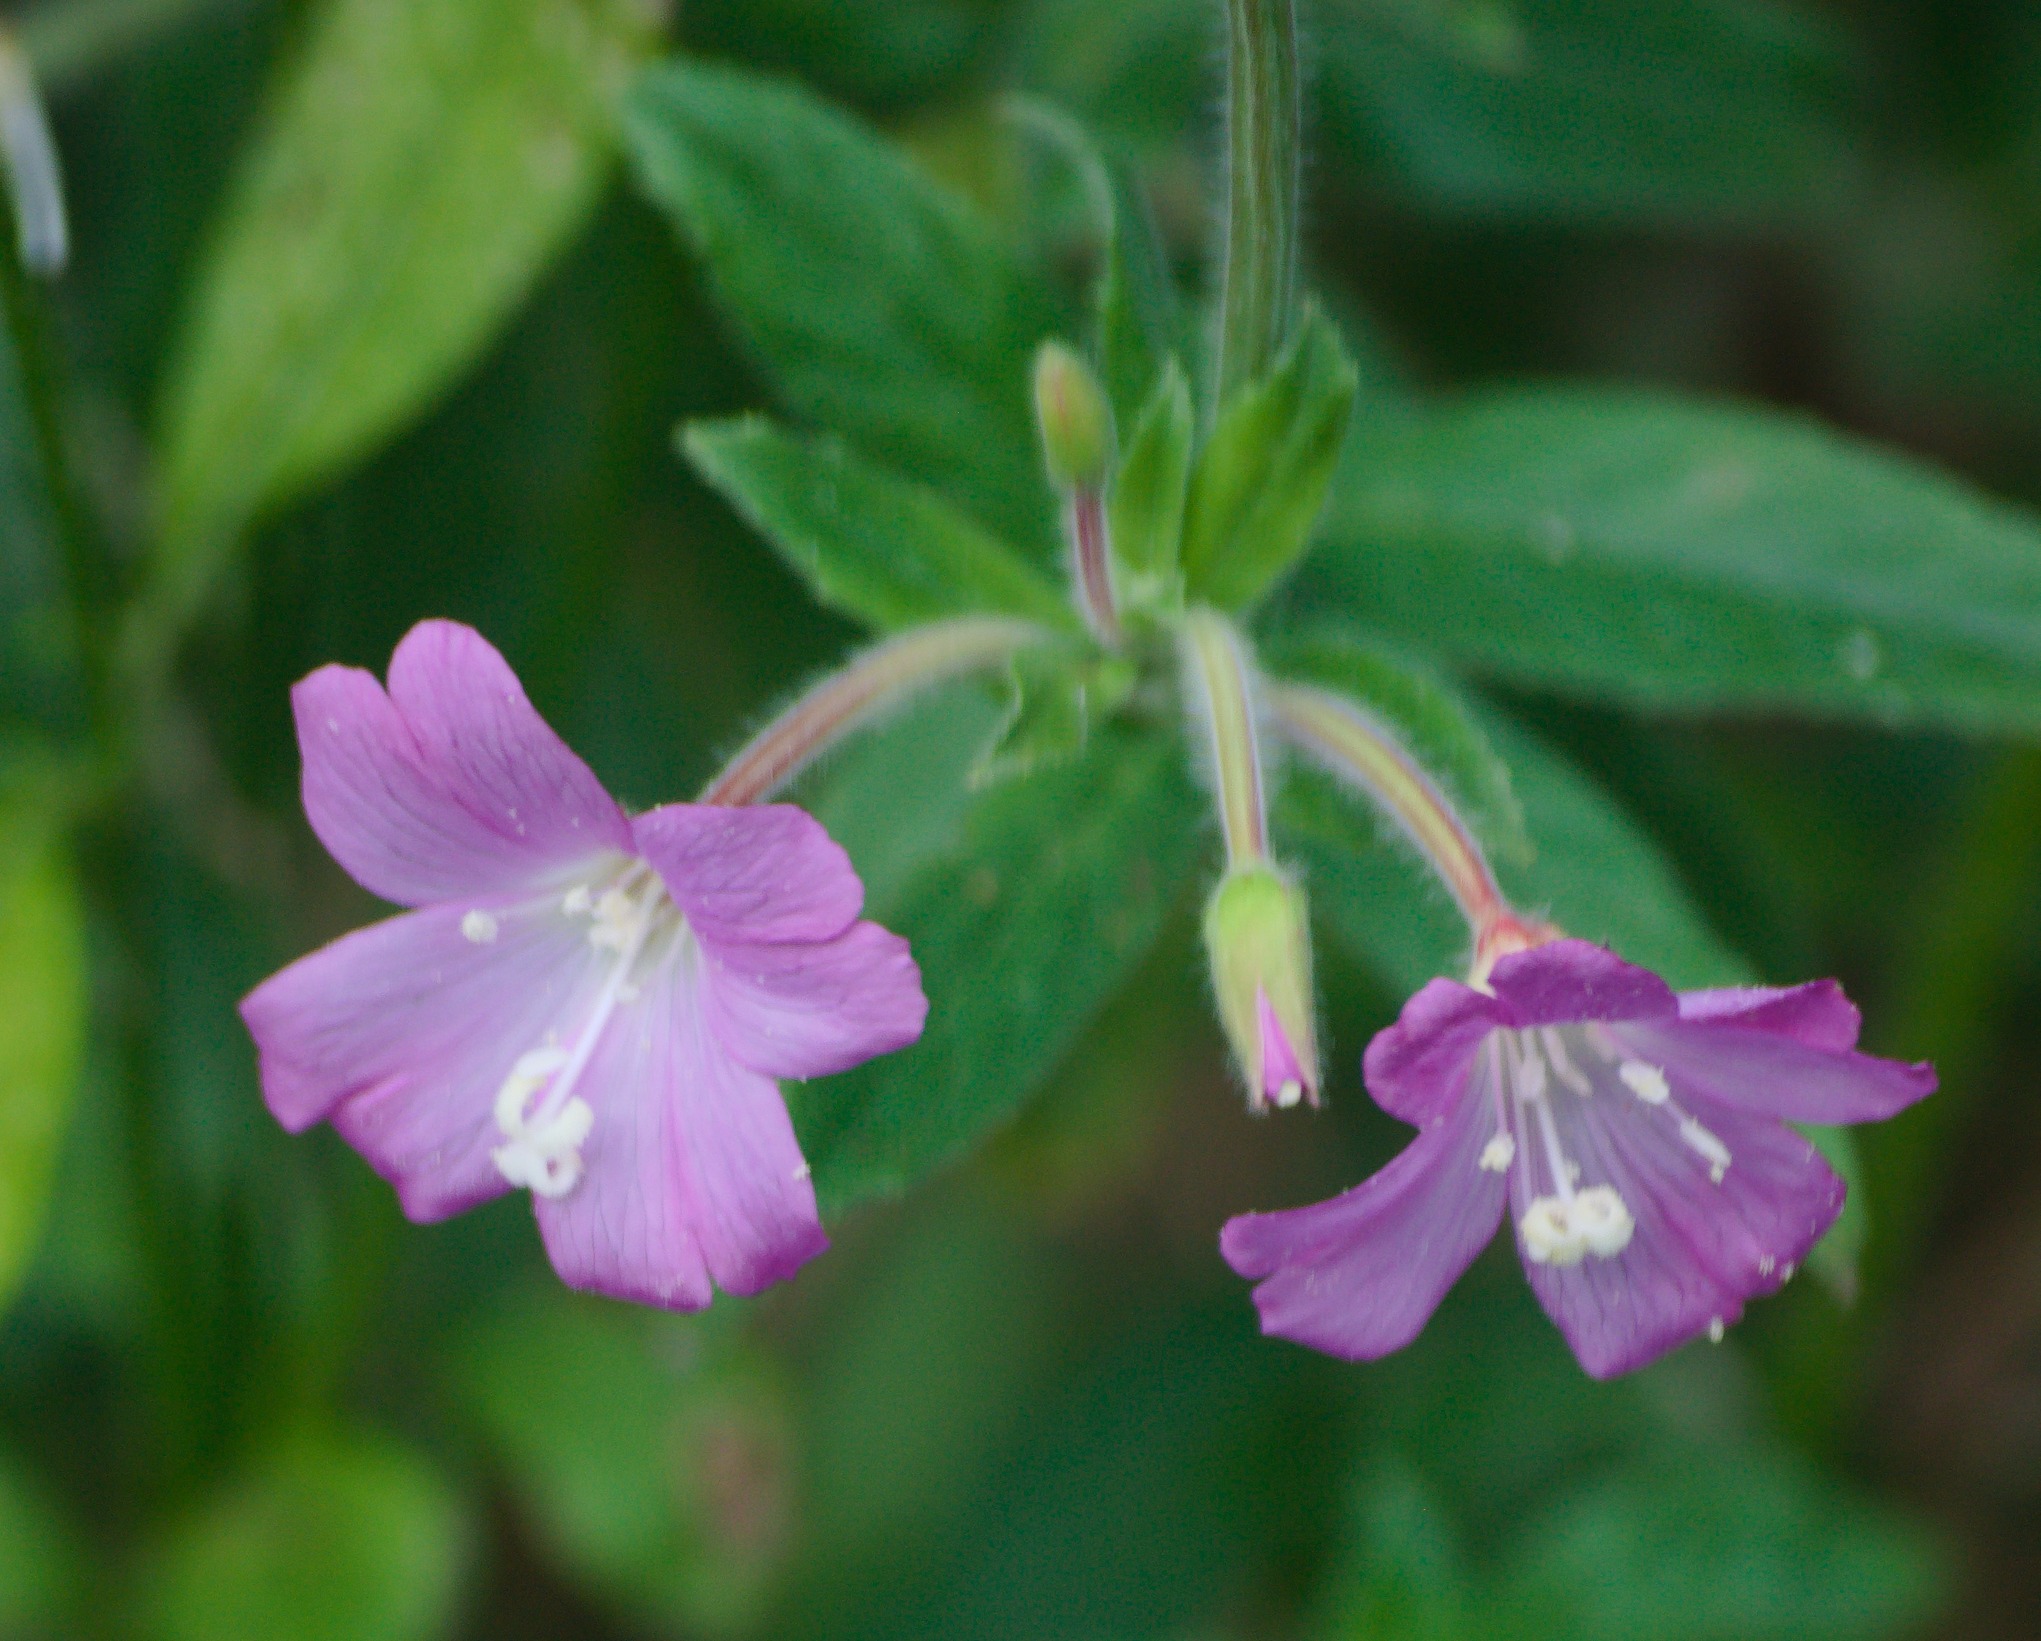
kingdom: Plantae
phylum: Tracheophyta
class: Magnoliopsida
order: Myrtales
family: Onagraceae
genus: Epilobium
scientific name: Epilobium hirsutum
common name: Lådden dueurt
